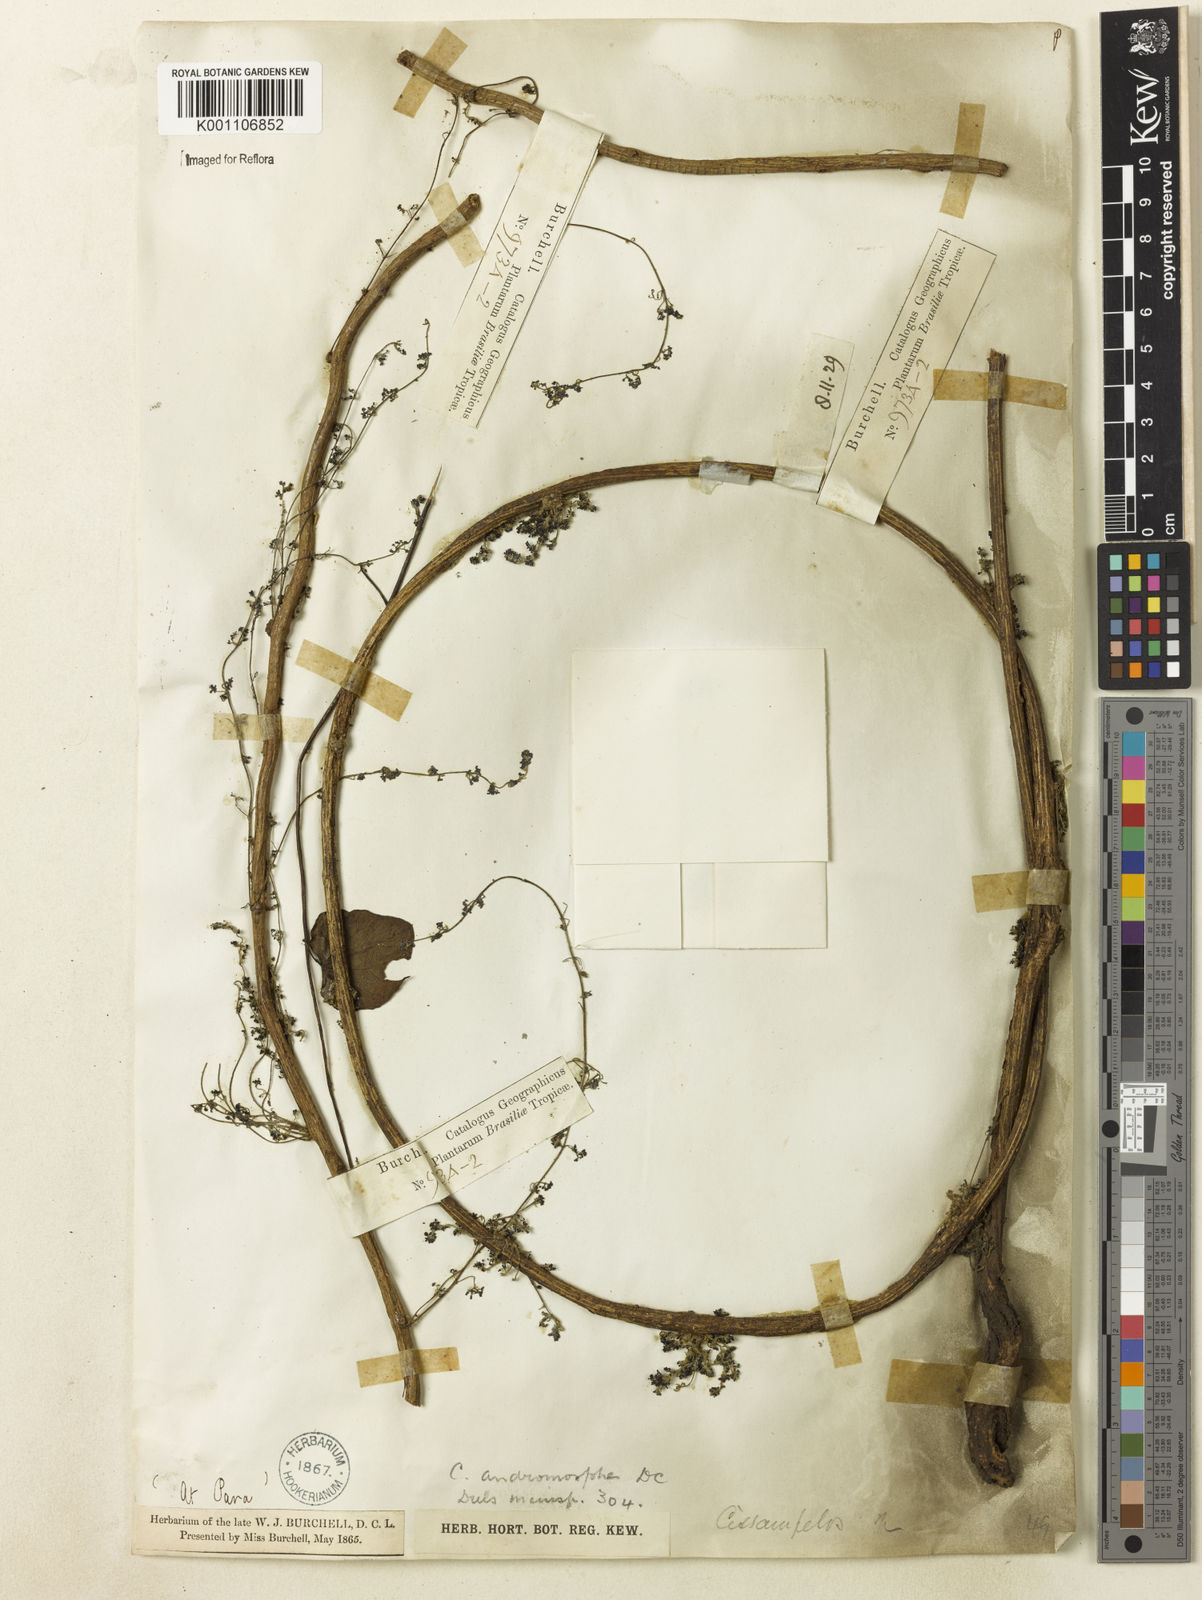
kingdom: Plantae
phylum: Tracheophyta
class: Magnoliopsida
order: Ranunculales
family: Menispermaceae
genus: Cissampelos
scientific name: Cissampelos andromorpha
